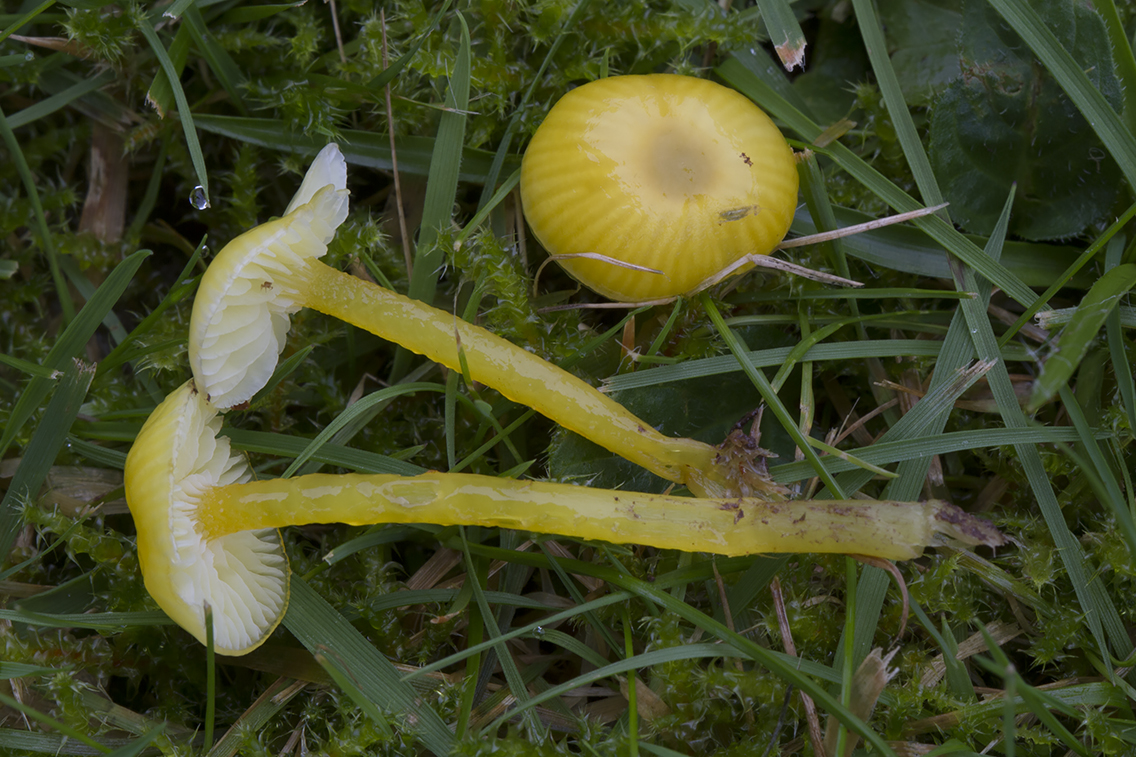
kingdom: Fungi
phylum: Basidiomycota
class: Agaricomycetes
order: Agaricales
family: Hygrophoraceae
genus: Hygrocybe
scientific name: Hygrocybe glutinipes
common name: slimstokket vokshat
